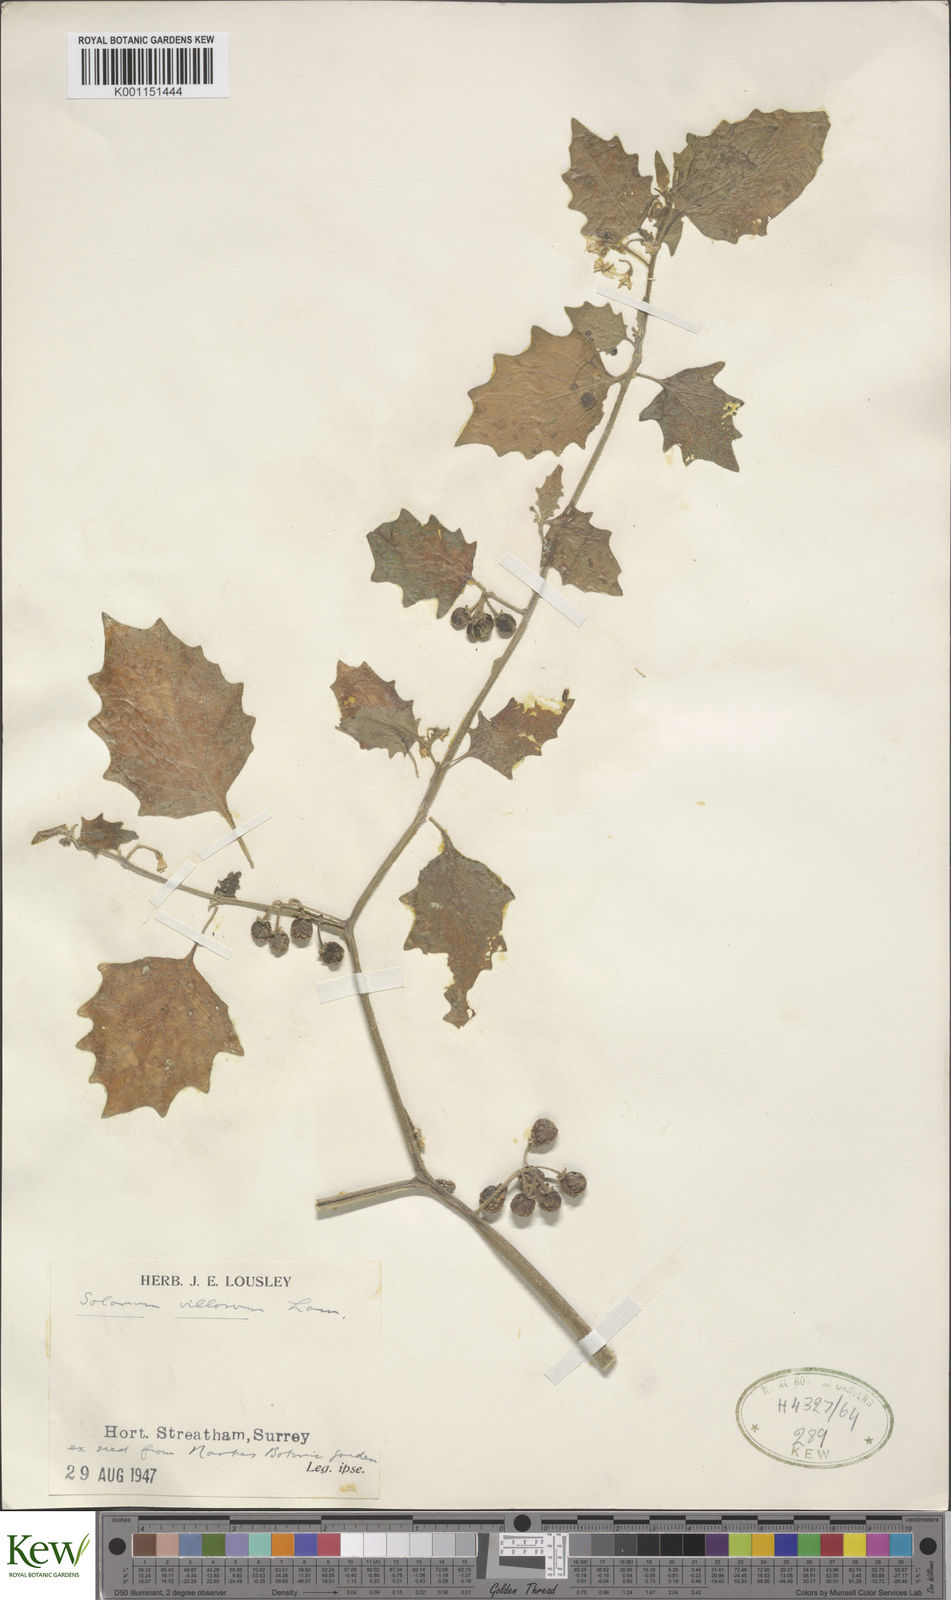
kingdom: Plantae
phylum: Tracheophyta
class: Magnoliopsida
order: Solanales
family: Solanaceae
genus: Solanum
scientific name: Solanum villosum
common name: Red nightshade
